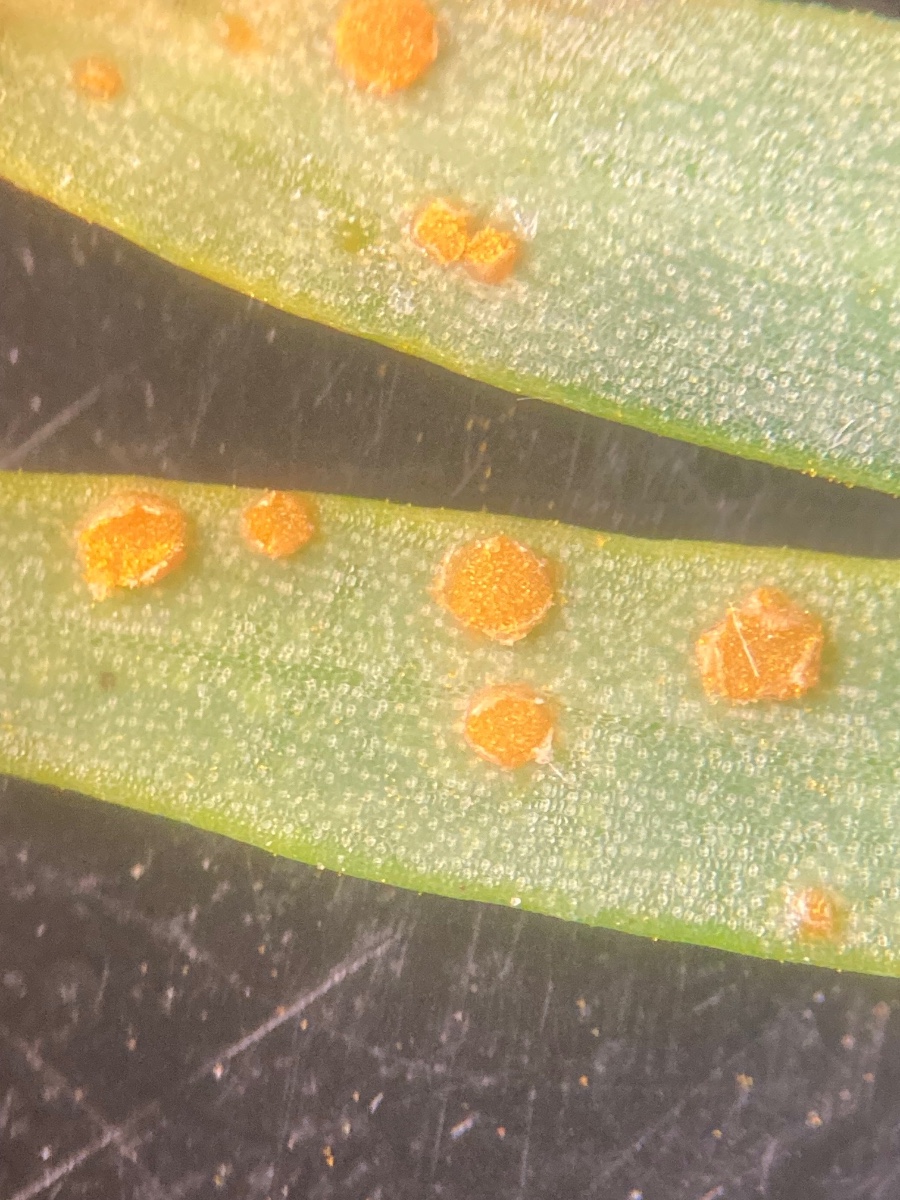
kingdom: Fungi
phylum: Basidiomycota
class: Pucciniomycetes
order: Pucciniales
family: Melampsoraceae
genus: Melampsora
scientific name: Melampsora lini
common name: Flax rust
